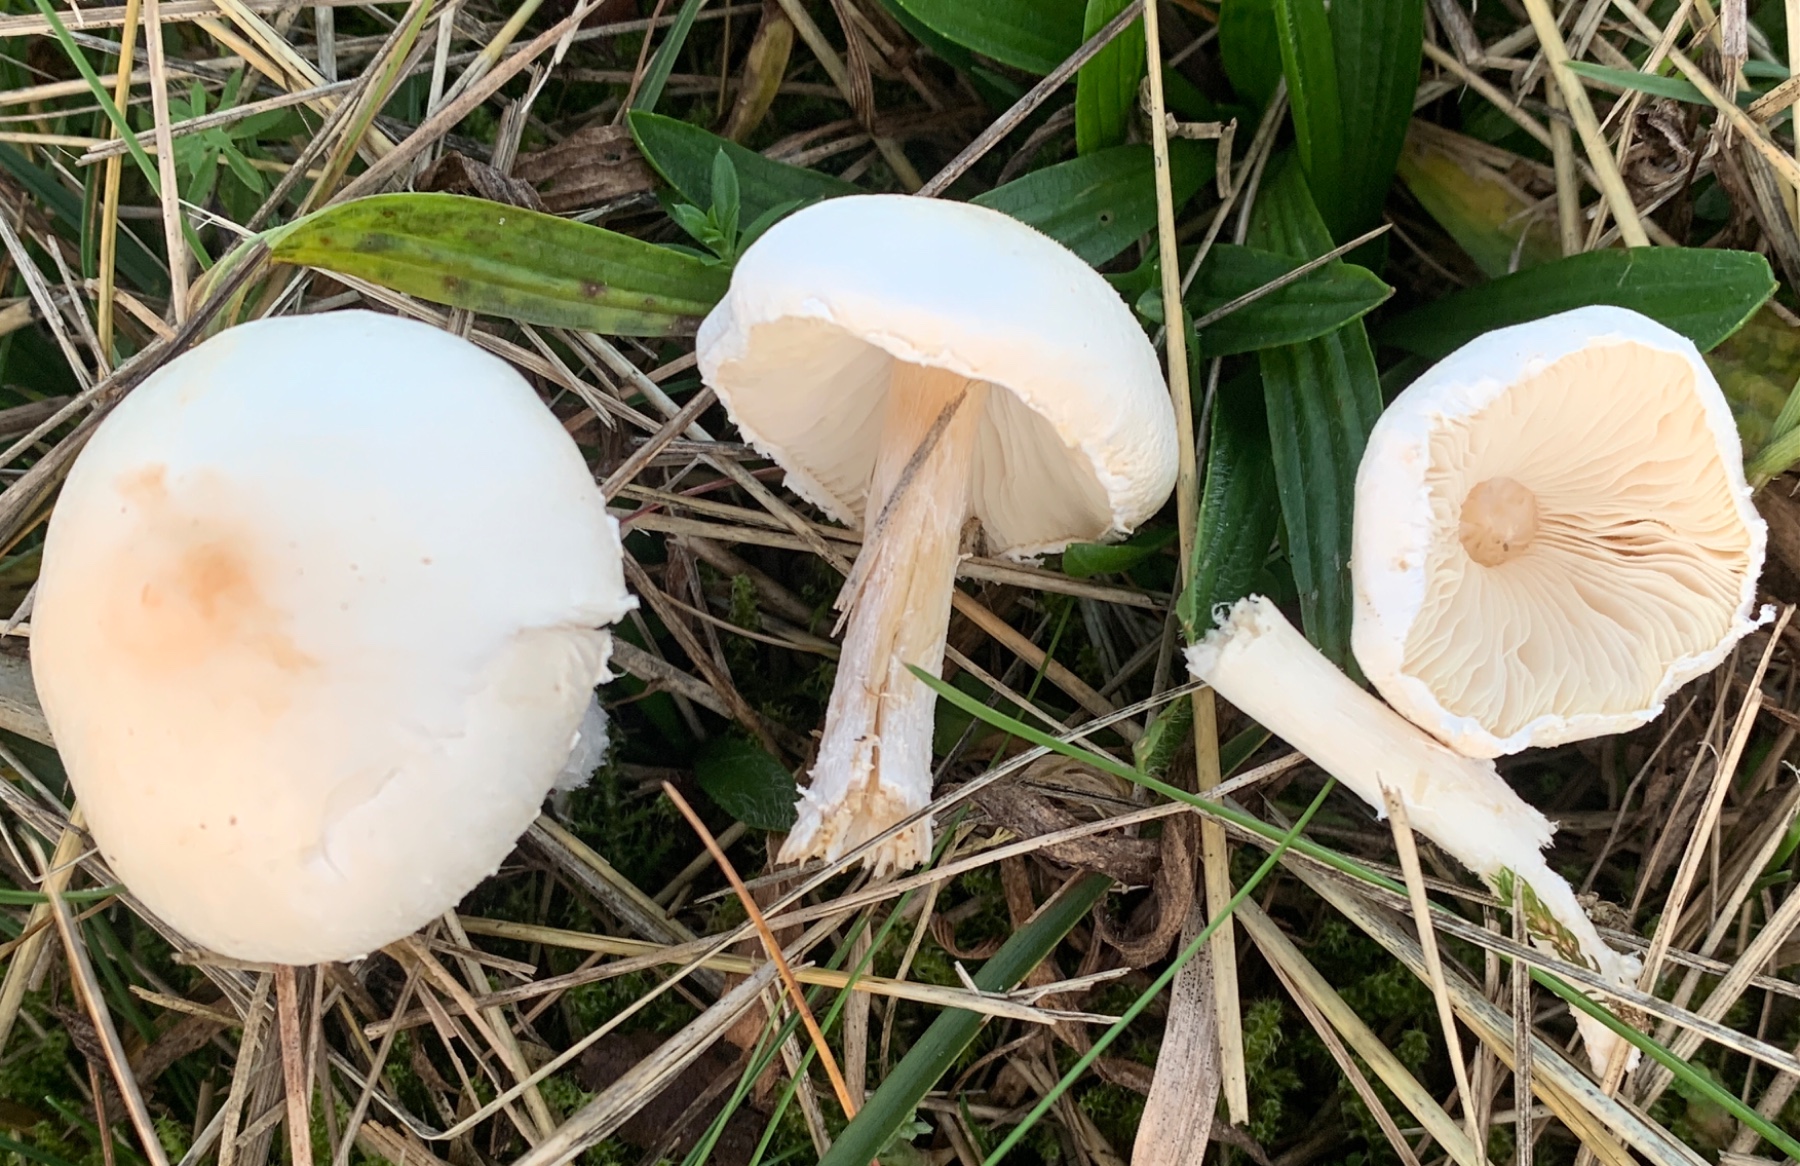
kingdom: Fungi
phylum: Basidiomycota
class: Agaricomycetes
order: Agaricales
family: Agaricaceae
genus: Leucoagaricus
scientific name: Leucoagaricus leucothites
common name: rosabladet silkehat
